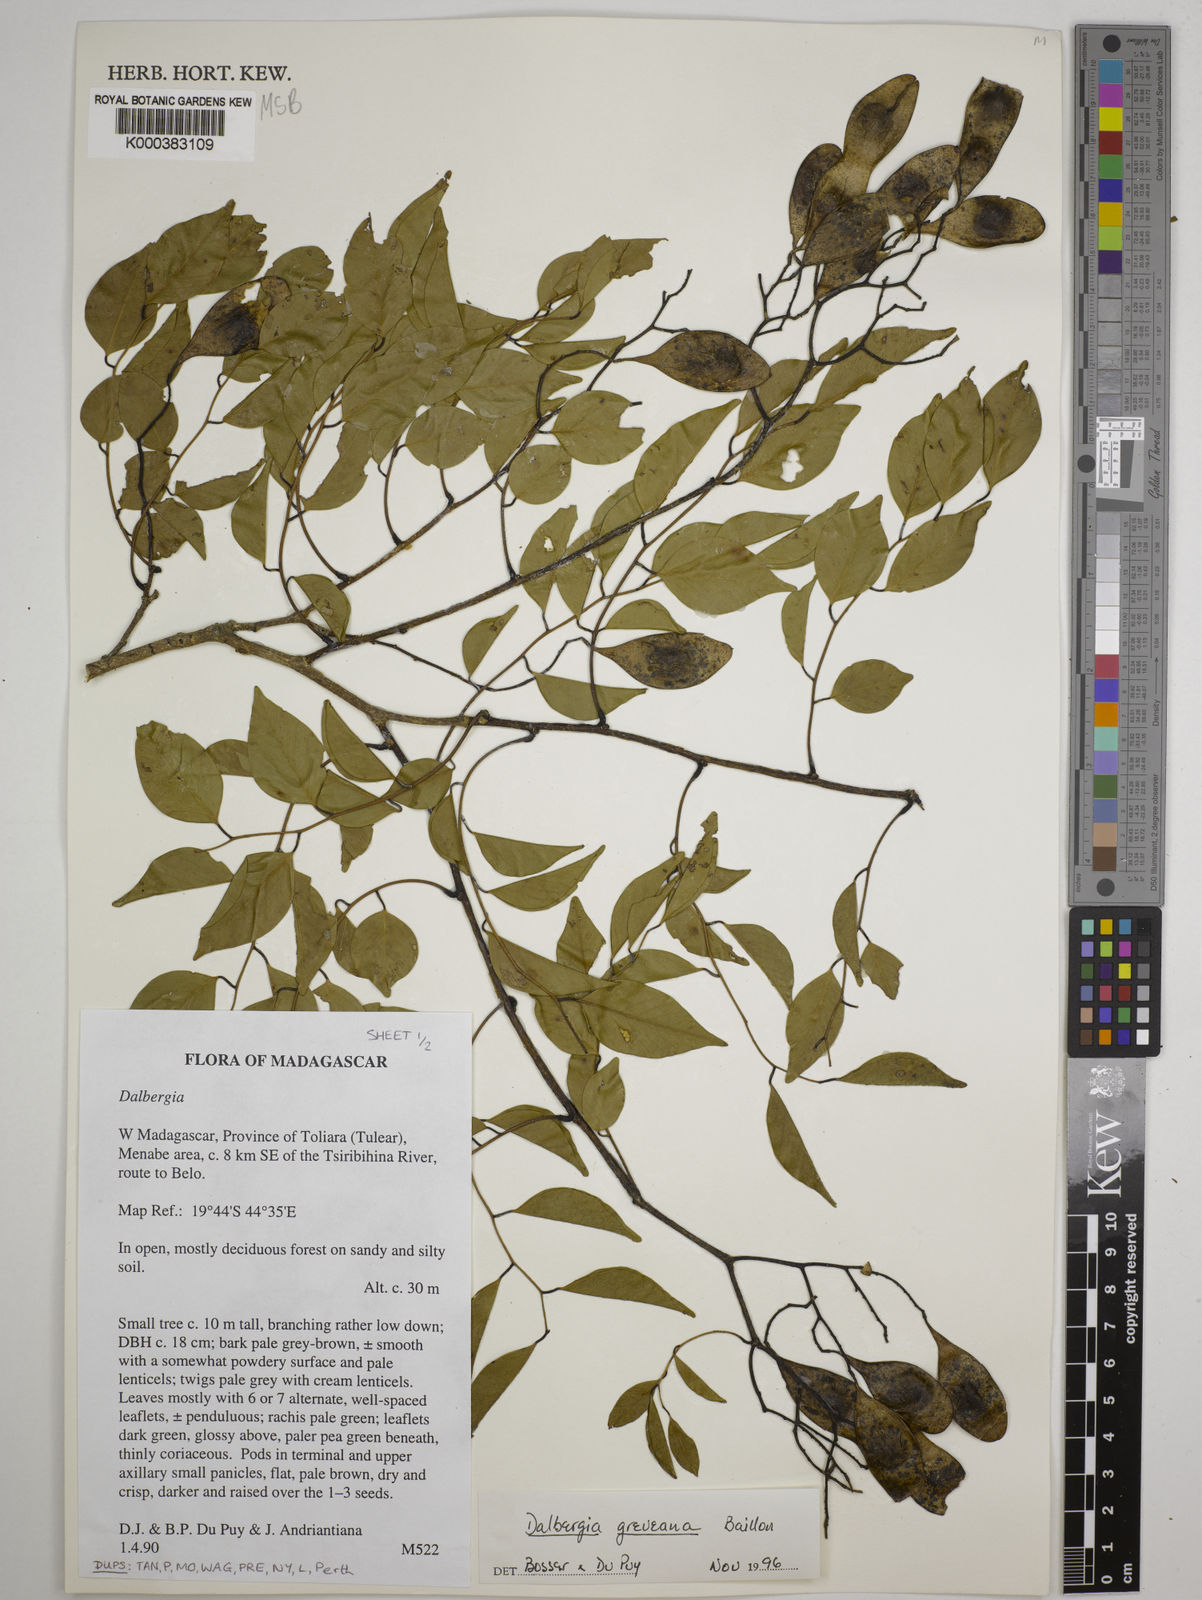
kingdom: Plantae
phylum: Tracheophyta
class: Magnoliopsida
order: Fabales
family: Fabaceae
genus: Dalbergia
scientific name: Dalbergia greveana
